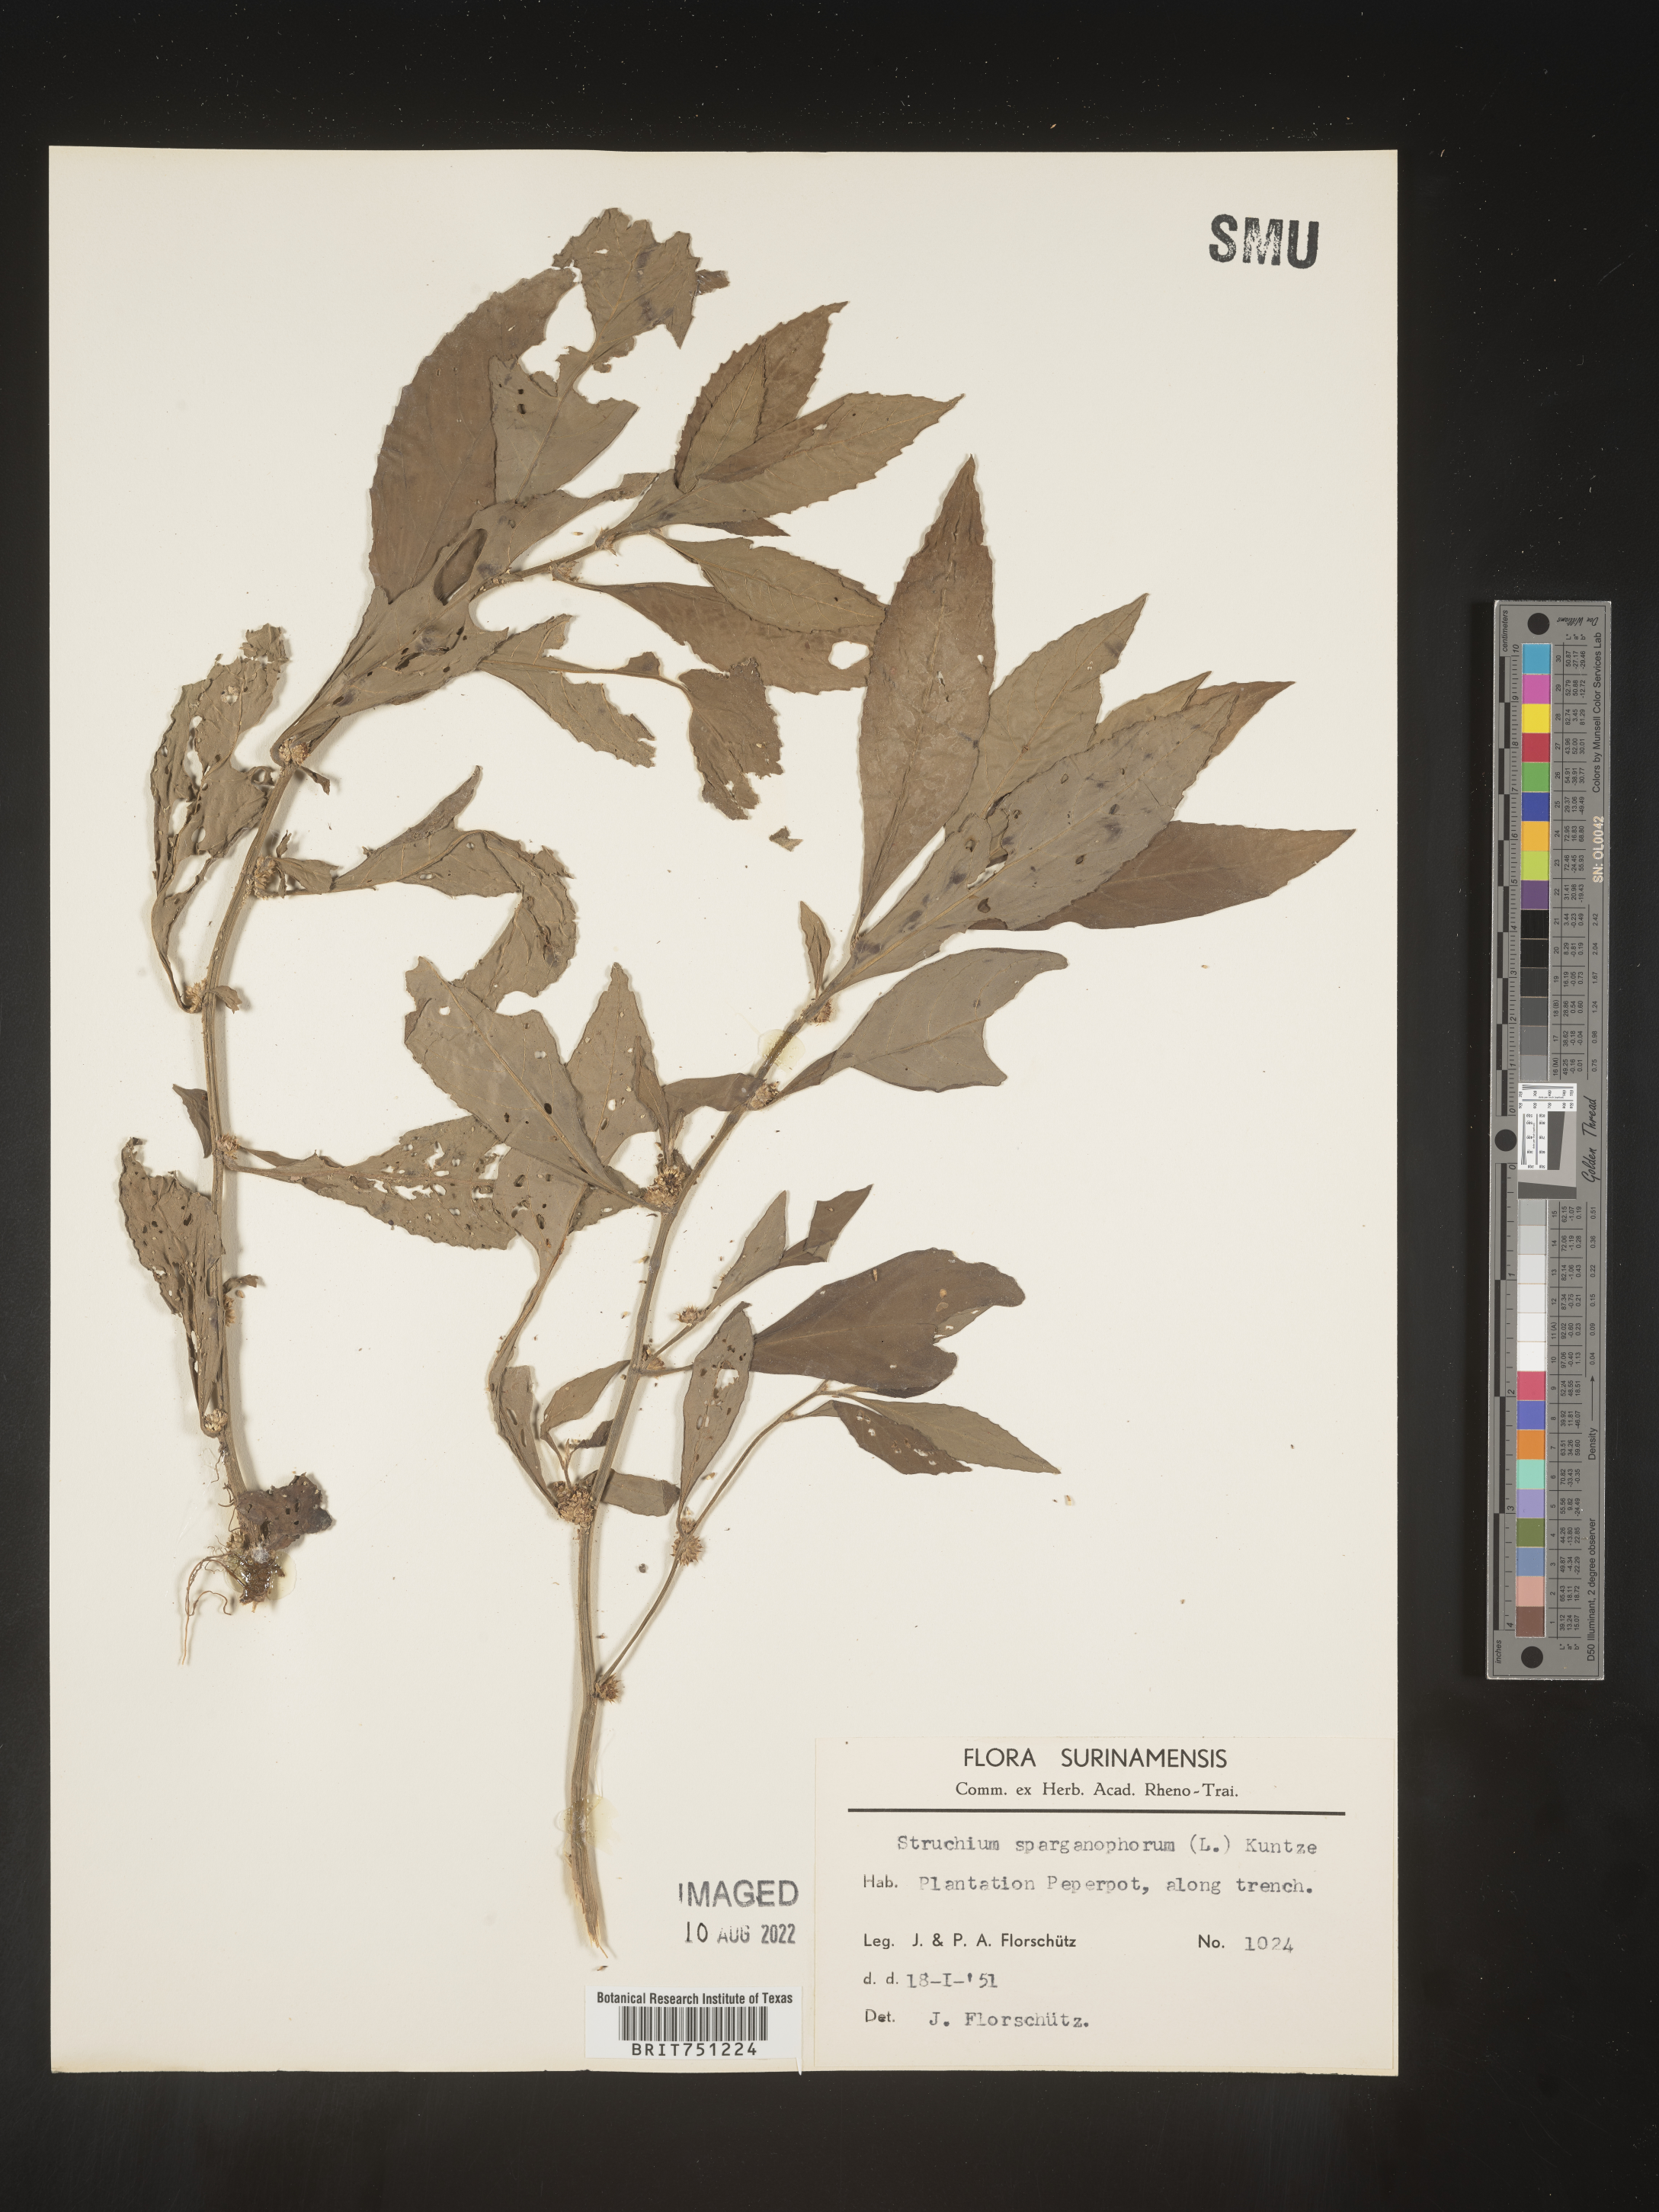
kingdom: Plantae
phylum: Tracheophyta
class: Magnoliopsida
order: Asterales
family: Asteraceae
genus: Struchium
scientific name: Struchium
